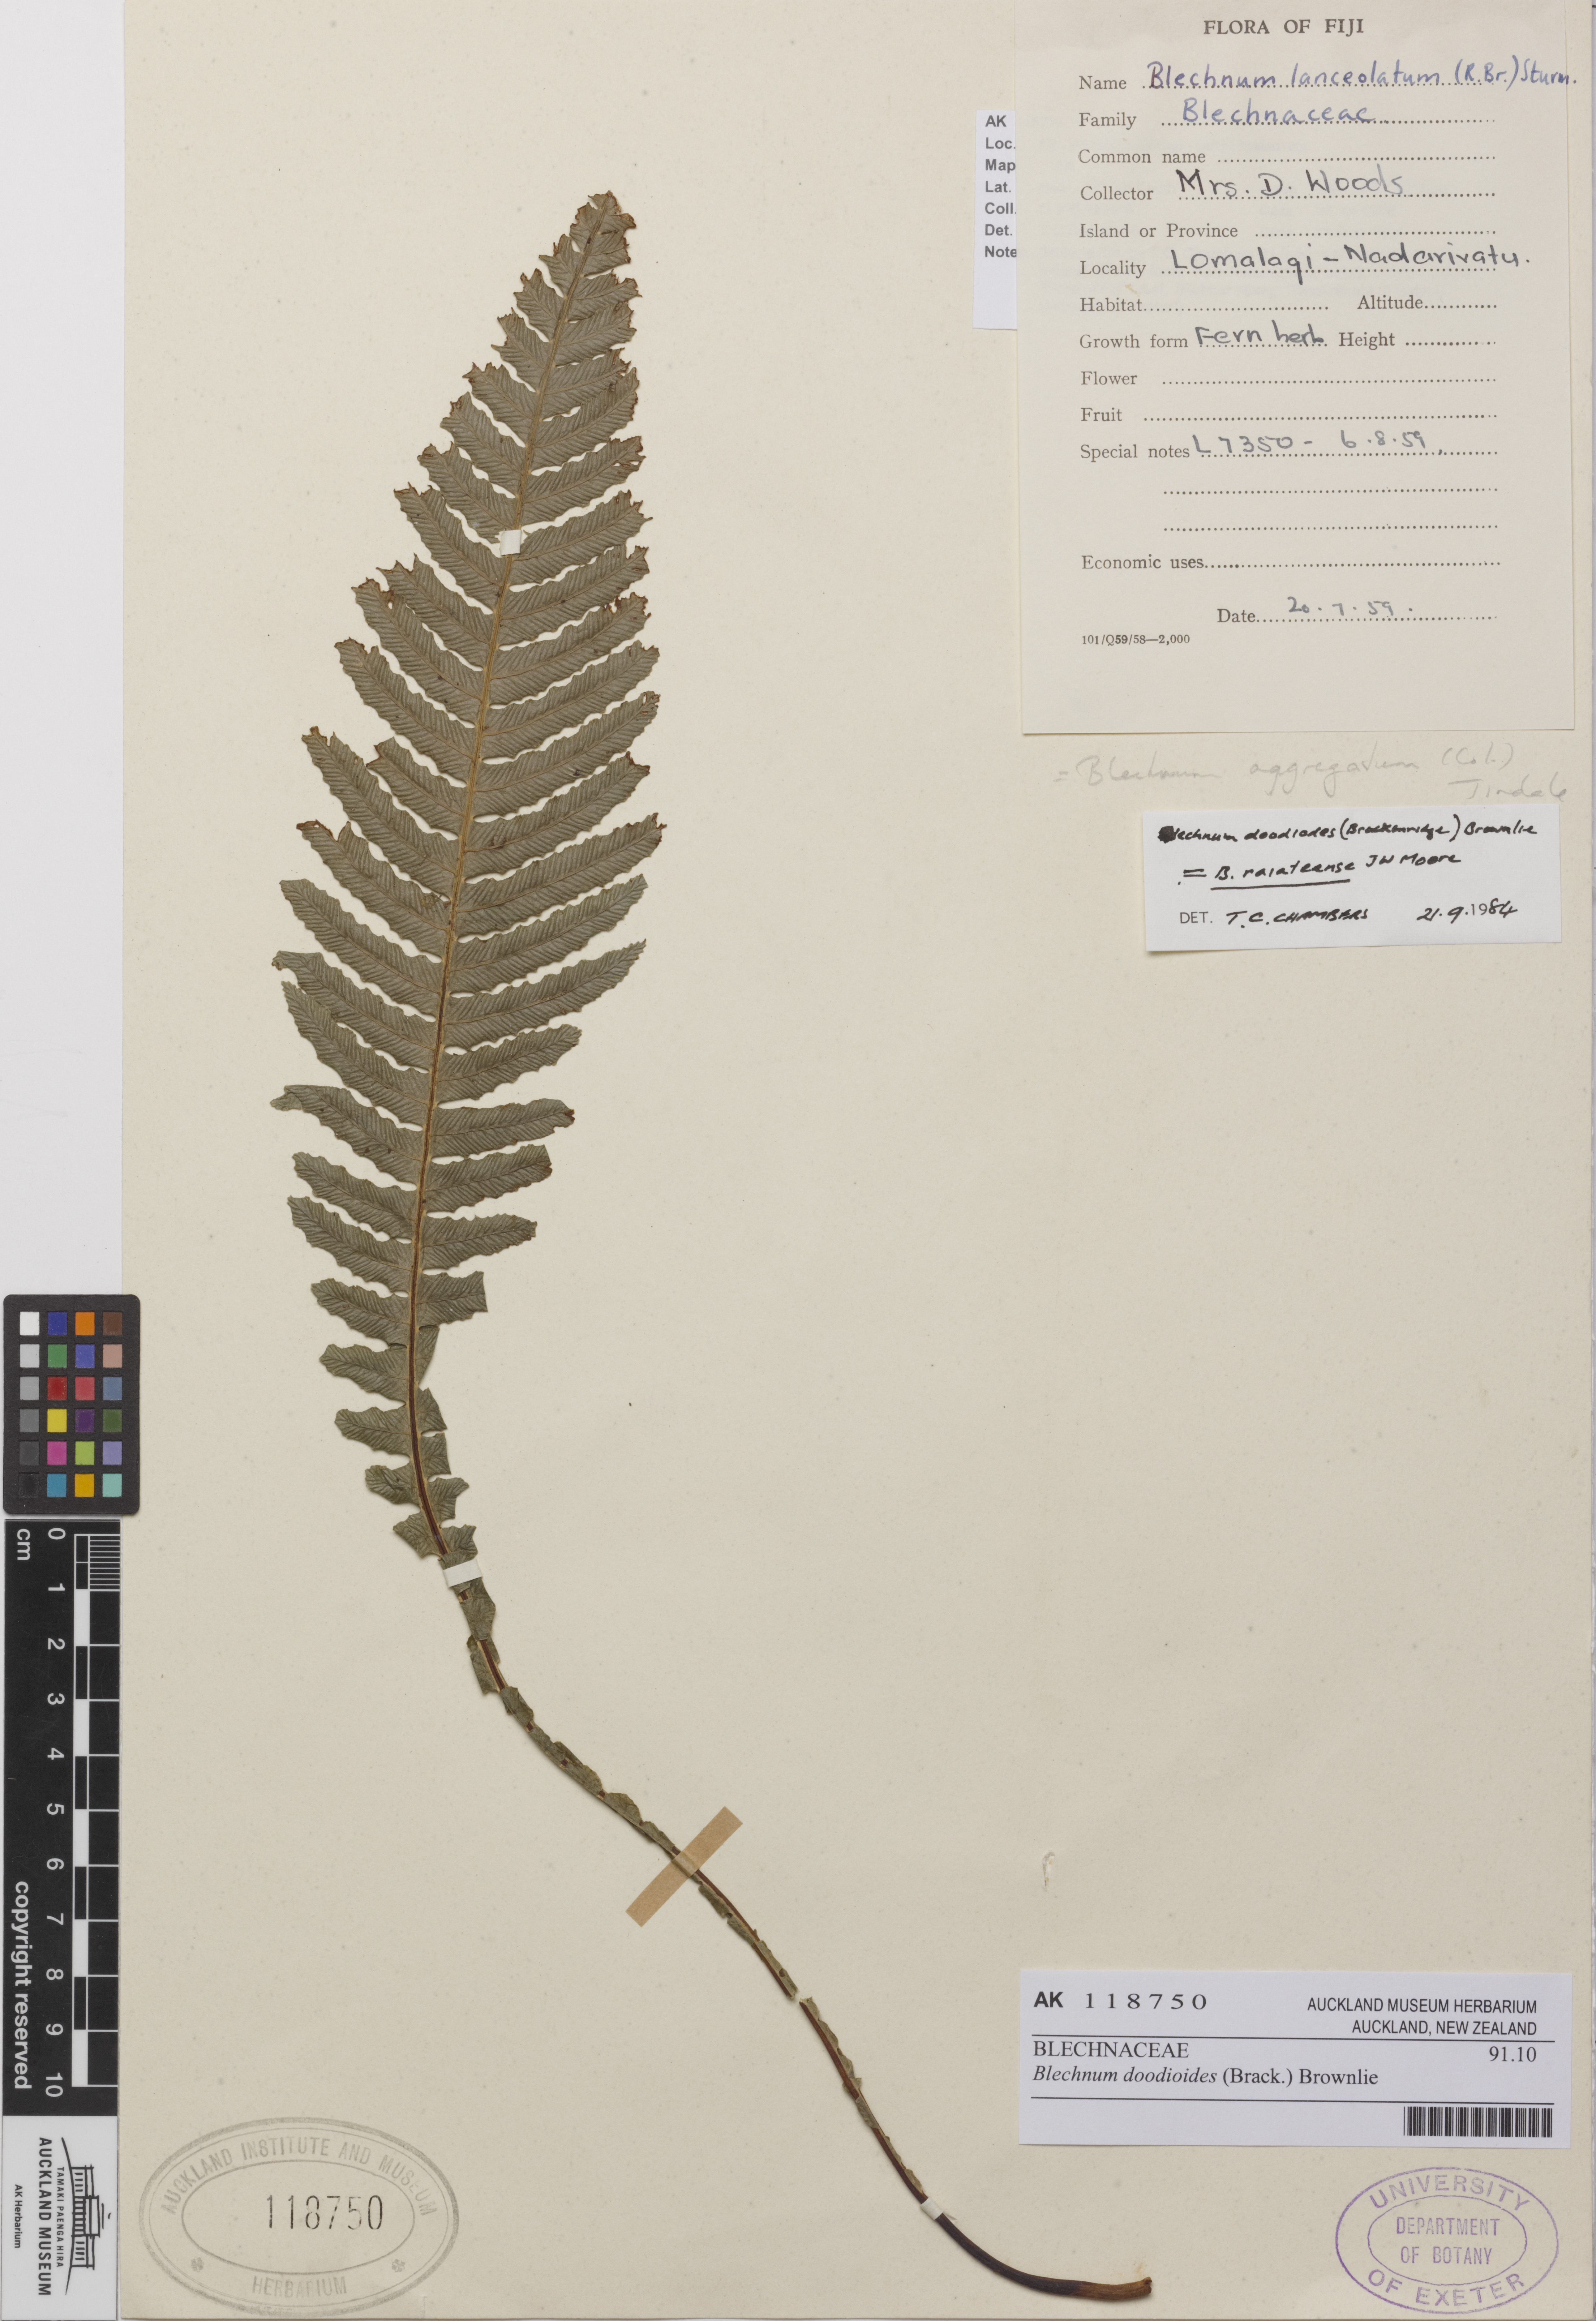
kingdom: Plantae
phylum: Tracheophyta
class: Polypodiopsida
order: Polypodiales
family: Blechnaceae
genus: Austroblechnum
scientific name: Austroblechnum lanceolatum
